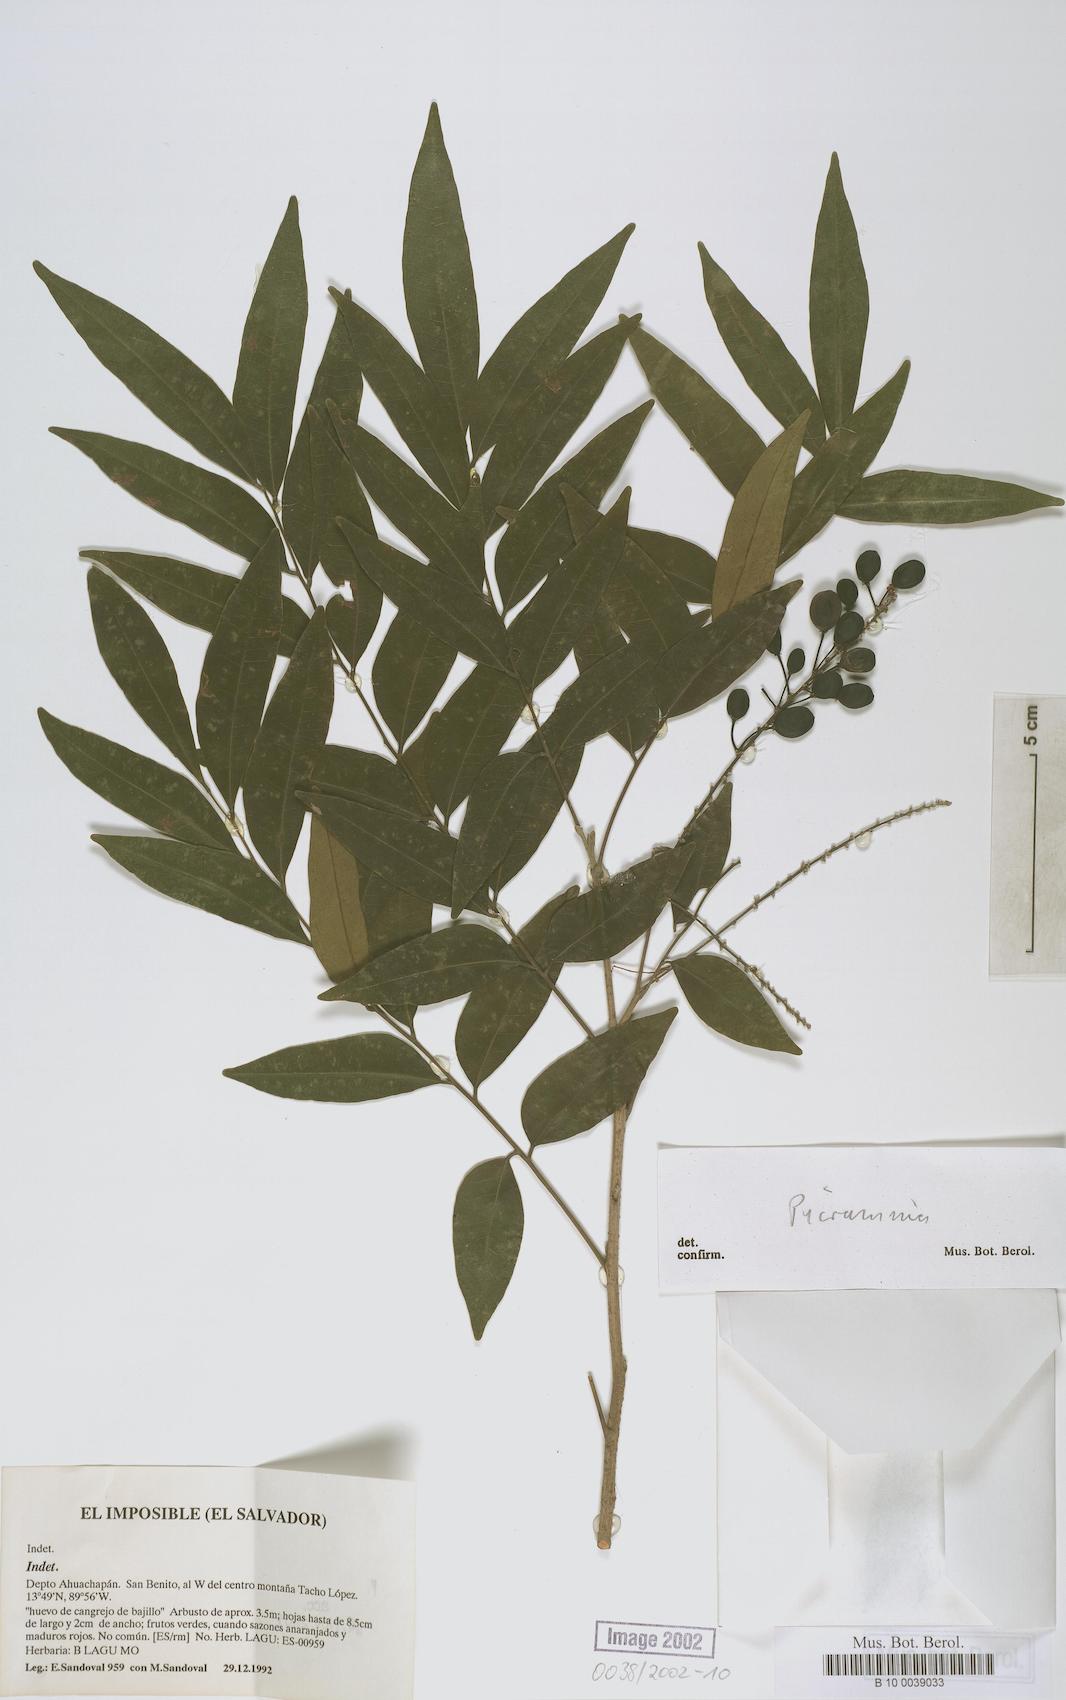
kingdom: Plantae
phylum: Tracheophyta
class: Magnoliopsida
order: Picramniales
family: Picramniaceae
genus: Picramnia
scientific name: Picramnia sphaerocarpa
